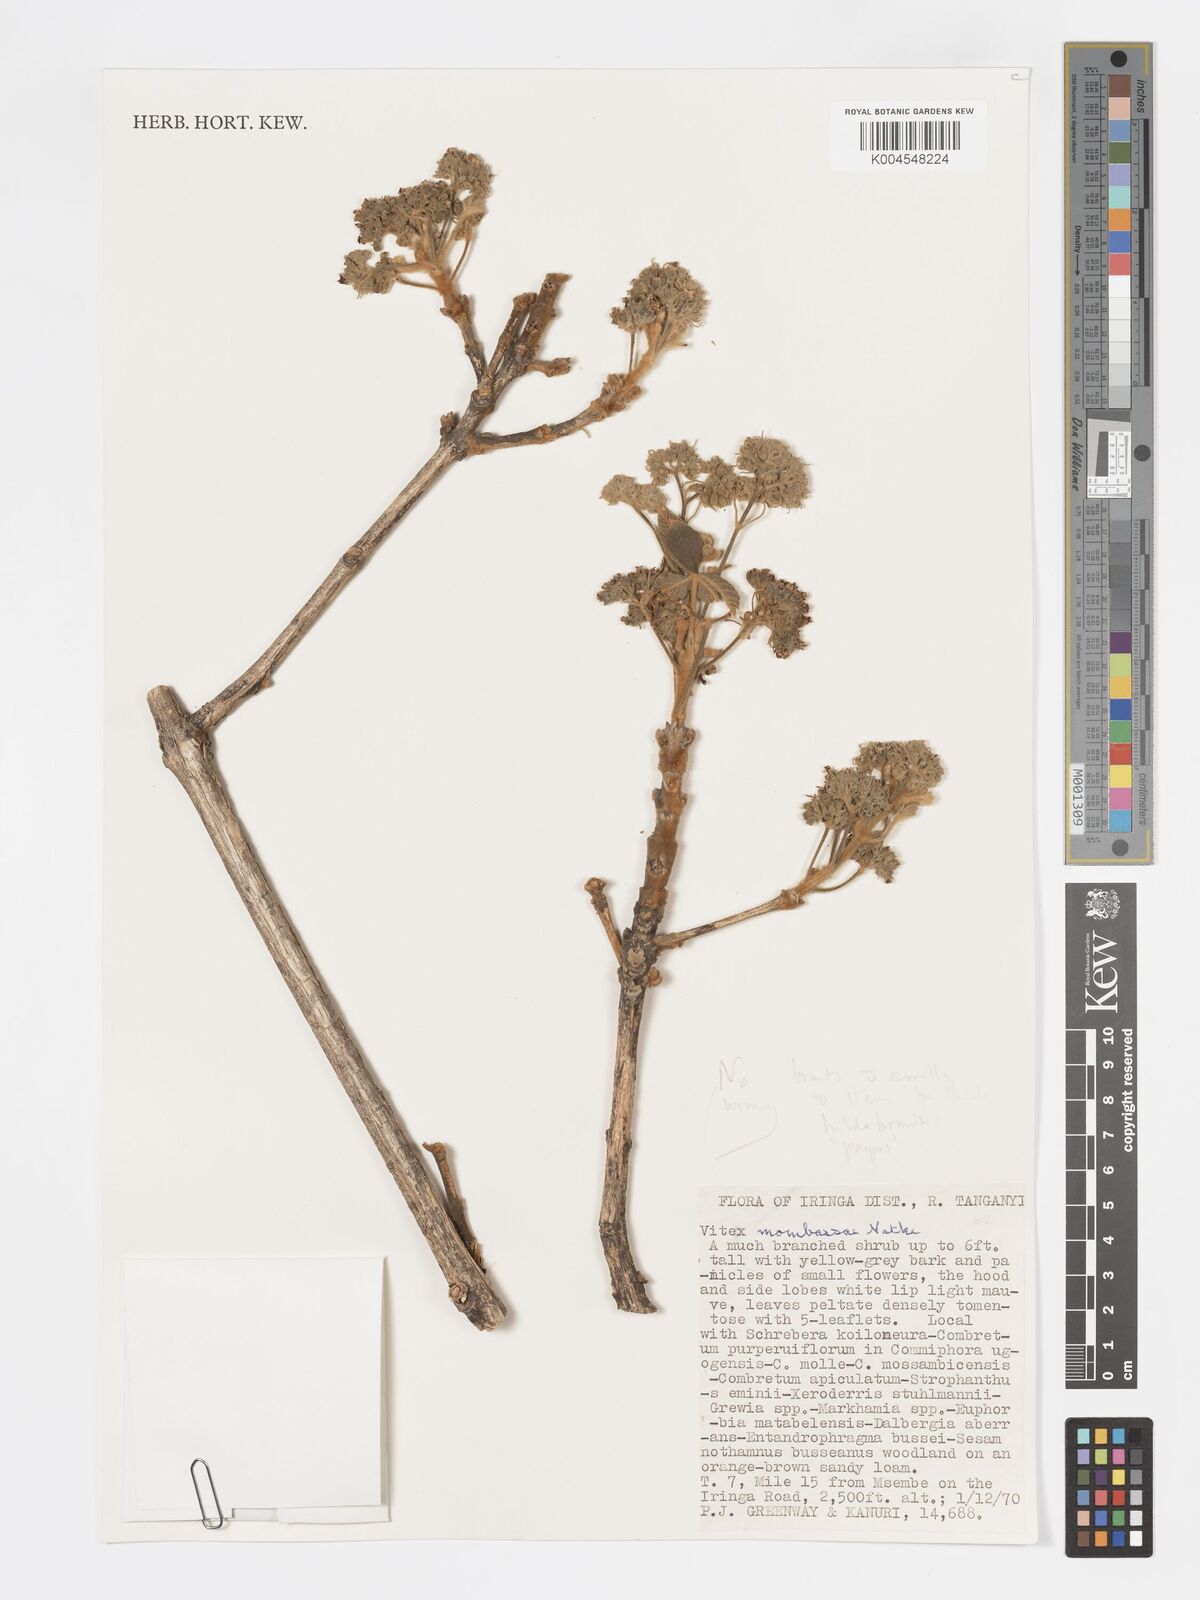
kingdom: Plantae
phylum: Tracheophyta
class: Magnoliopsida
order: Lamiales
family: Lamiaceae
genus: Vitex
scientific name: Vitex payos
